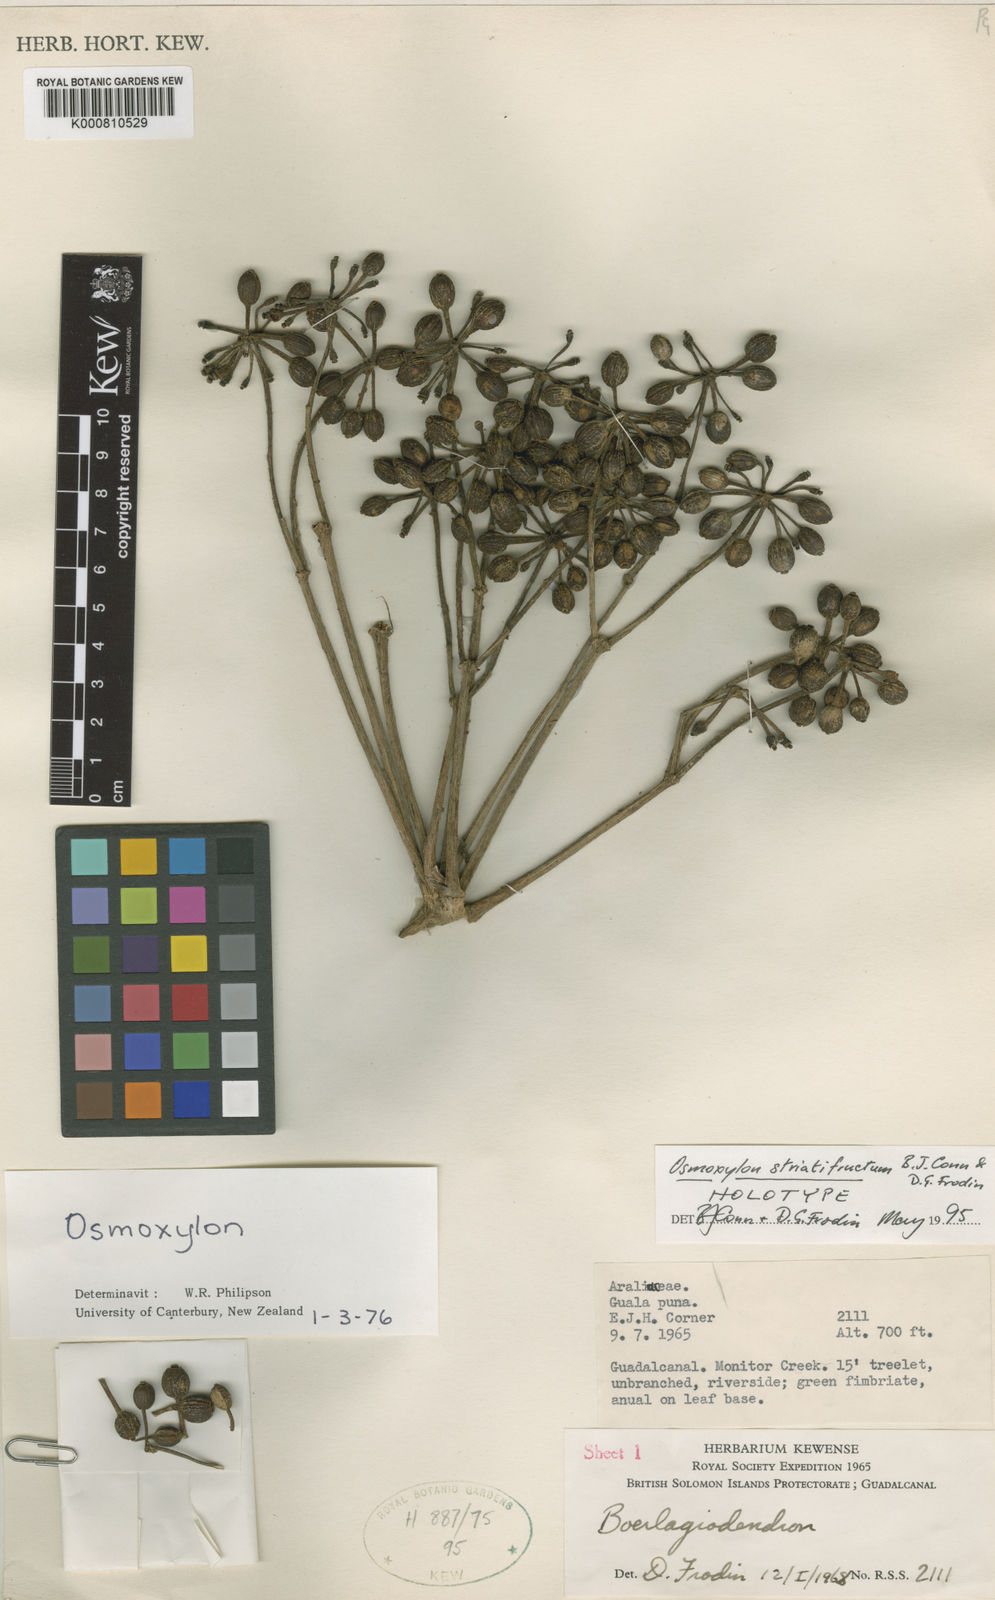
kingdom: Plantae
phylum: Tracheophyta
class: Magnoliopsida
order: Apiales
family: Araliaceae
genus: Osmoxylon
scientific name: Osmoxylon striatifructum
